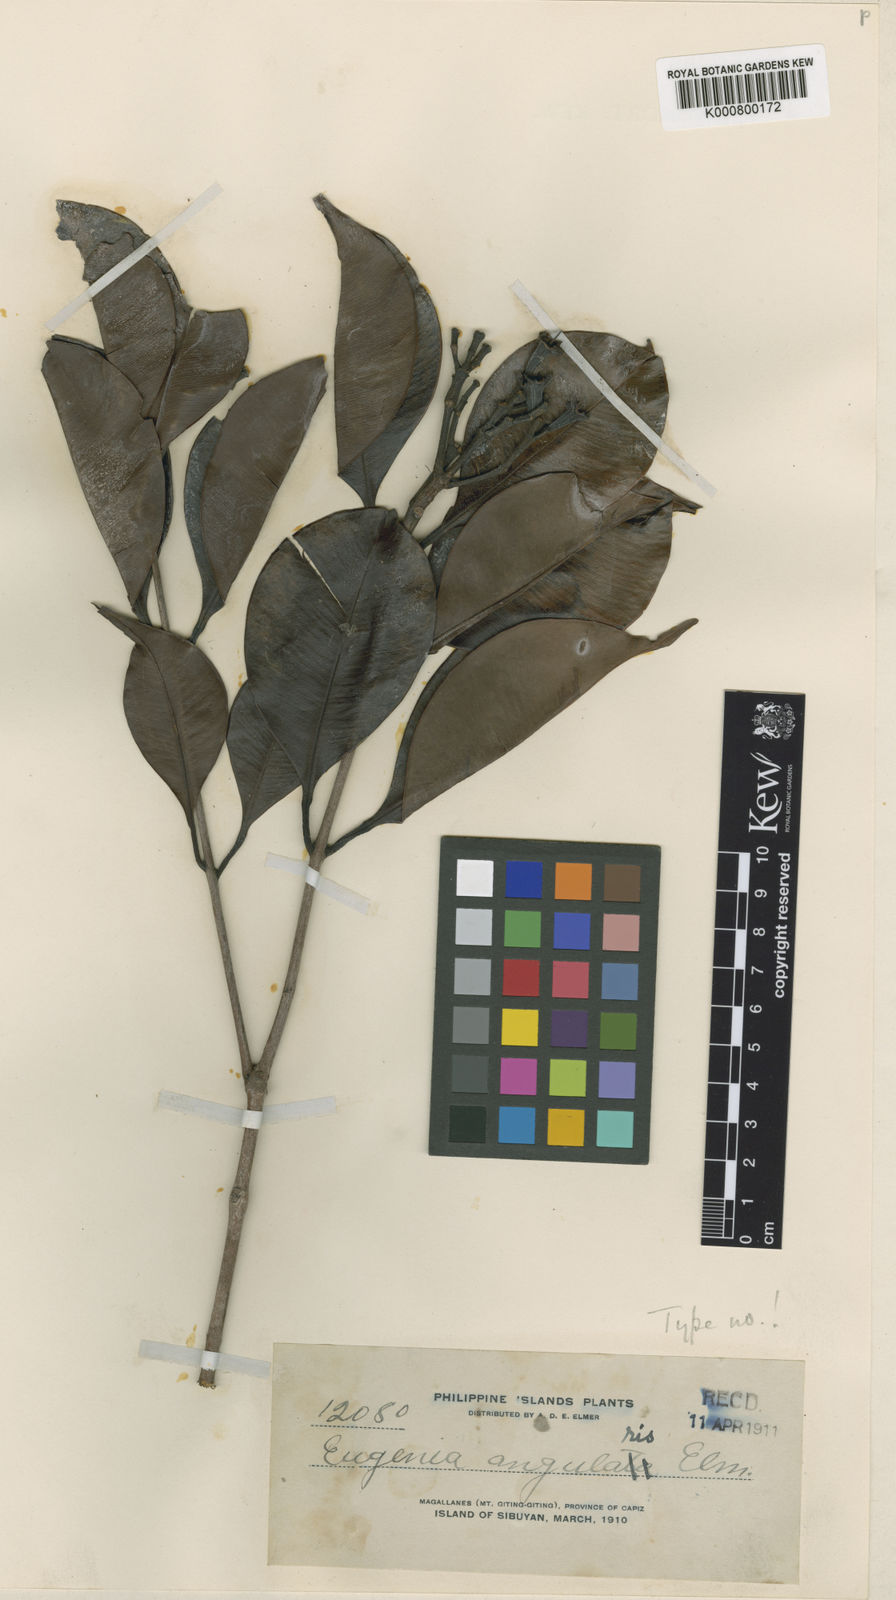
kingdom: Plantae
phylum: Tracheophyta
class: Magnoliopsida
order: Myrtales
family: Myrtaceae
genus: Syzygium
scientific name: Syzygium angulare
